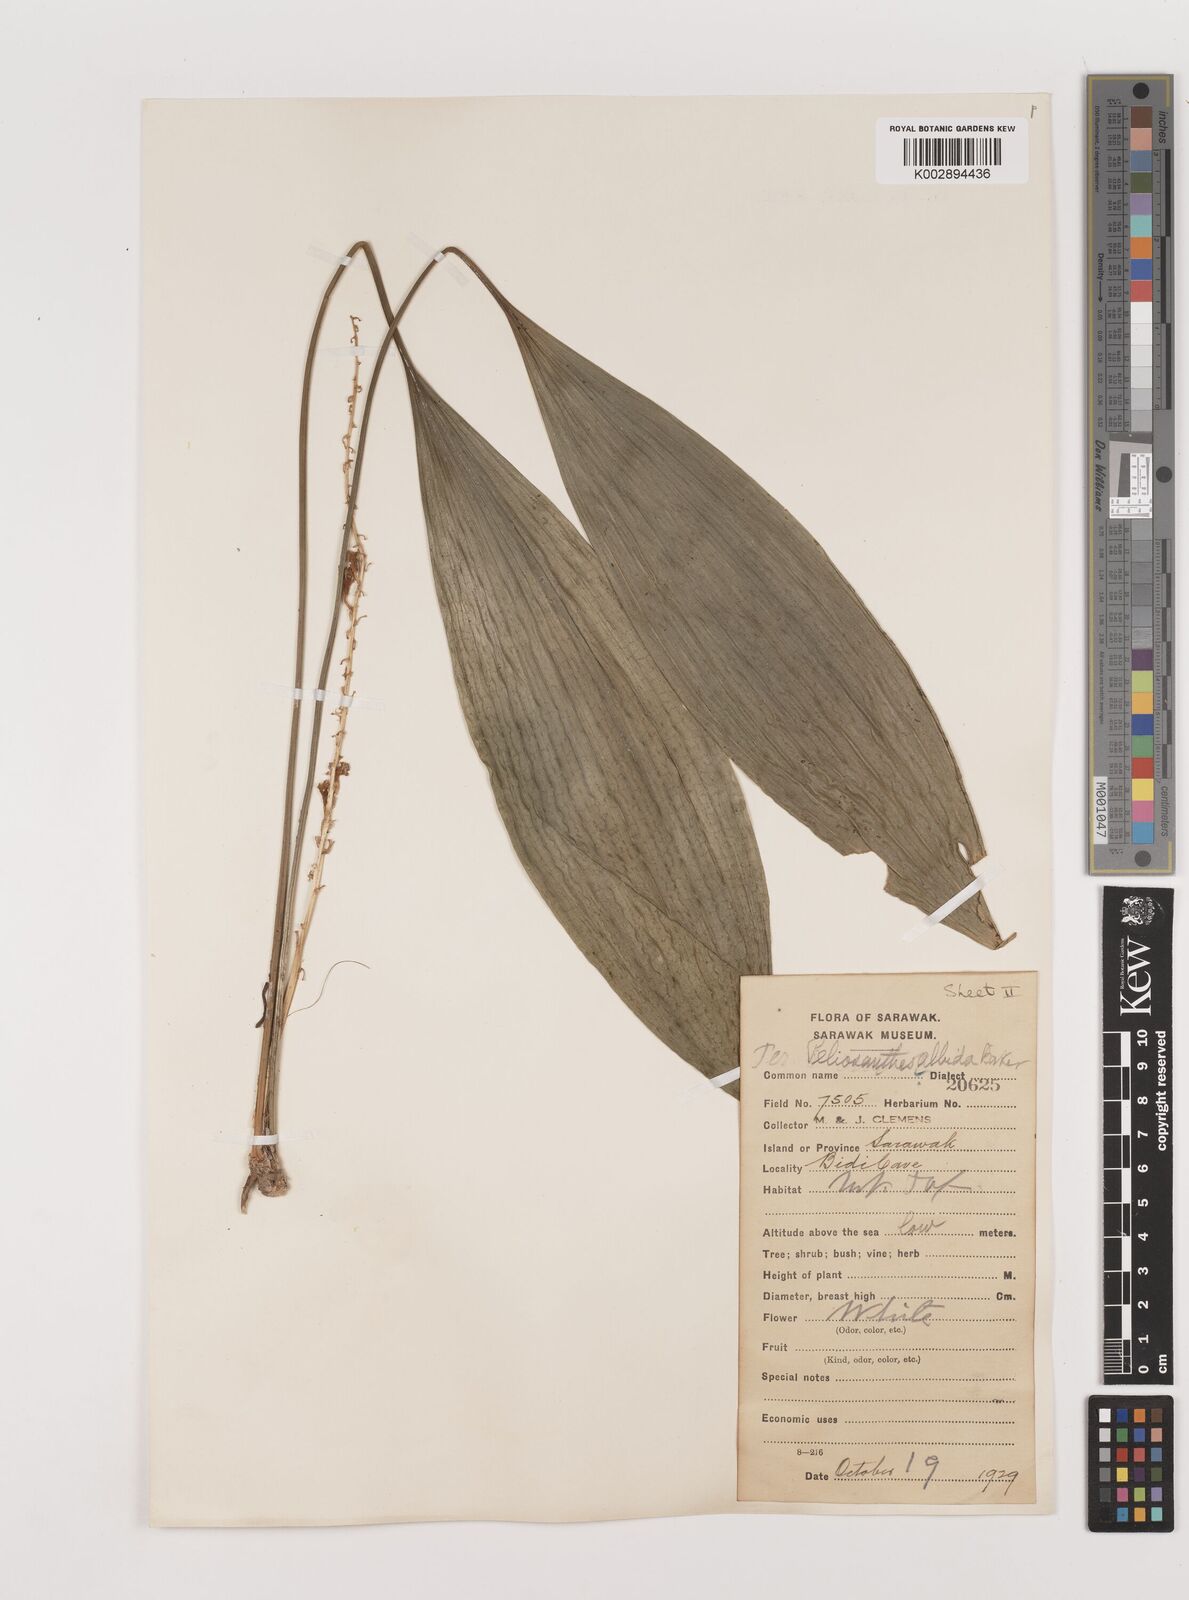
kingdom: Plantae
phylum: Tracheophyta
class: Liliopsida
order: Asparagales
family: Asparagaceae
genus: Peliosanthes
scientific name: Peliosanthes teta
